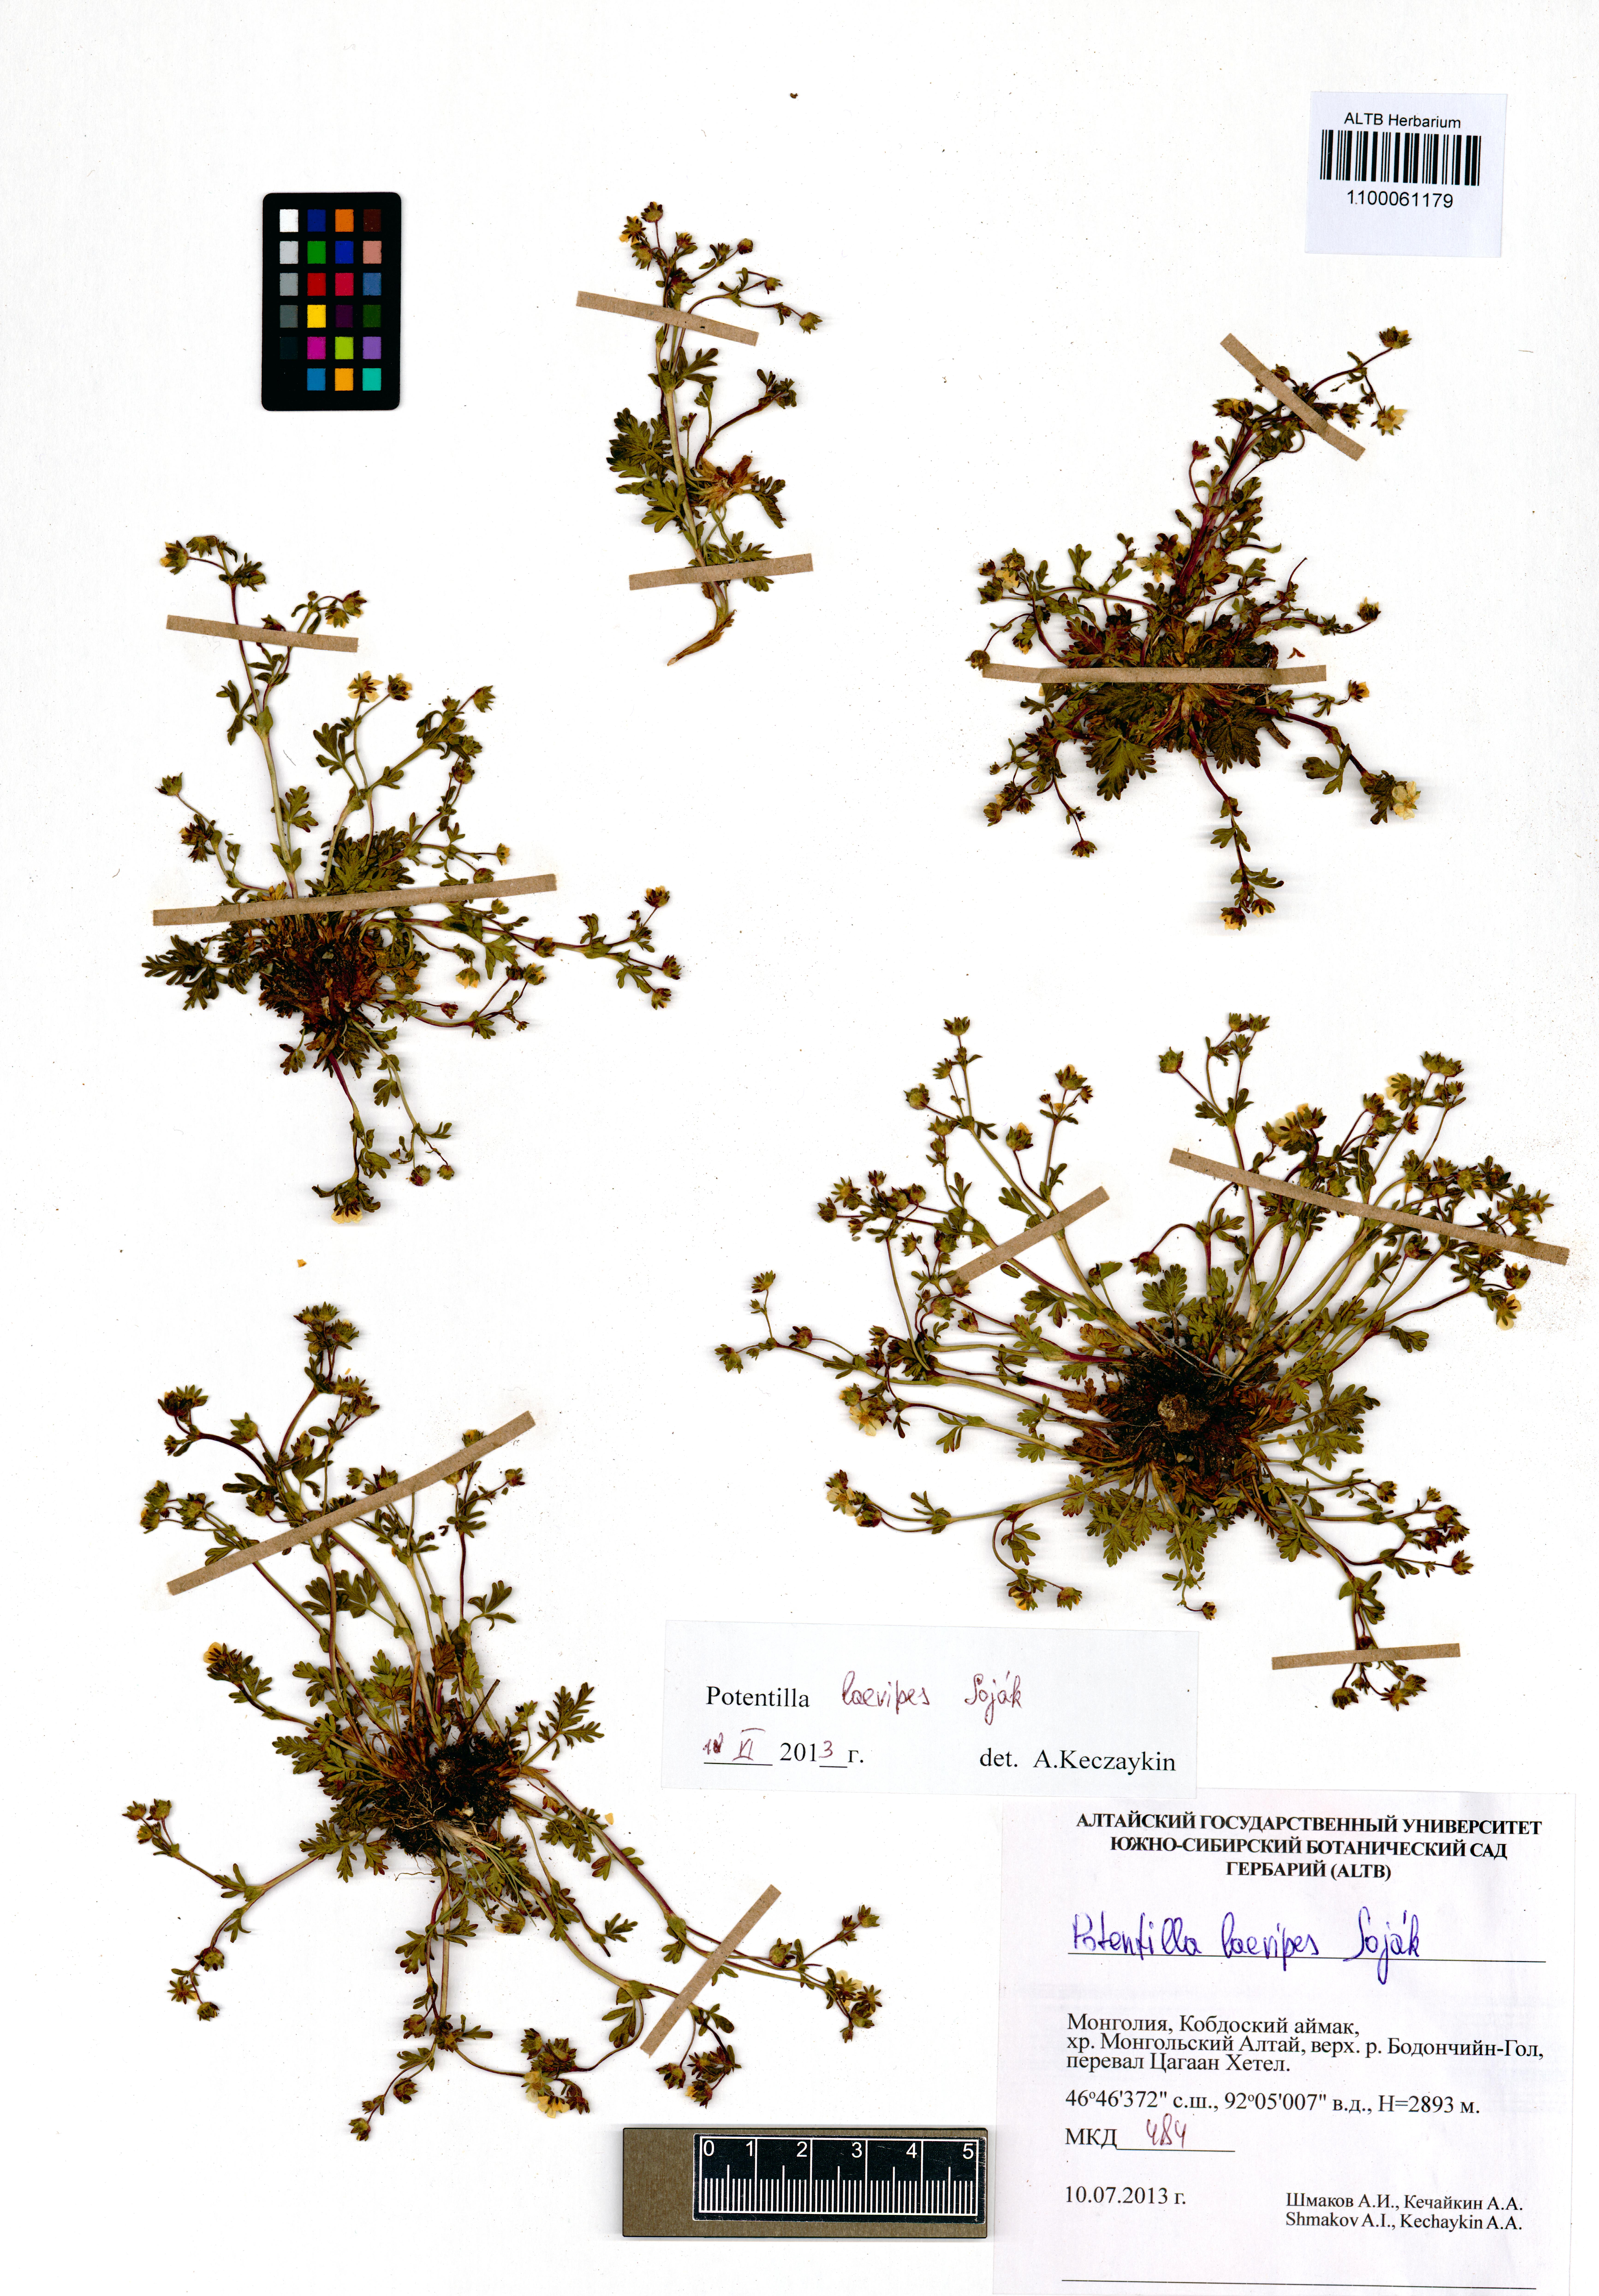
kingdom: Plantae
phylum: Tracheophyta
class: Magnoliopsida
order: Rosales
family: Rosaceae
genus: Potentilla
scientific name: Potentilla laevipes
